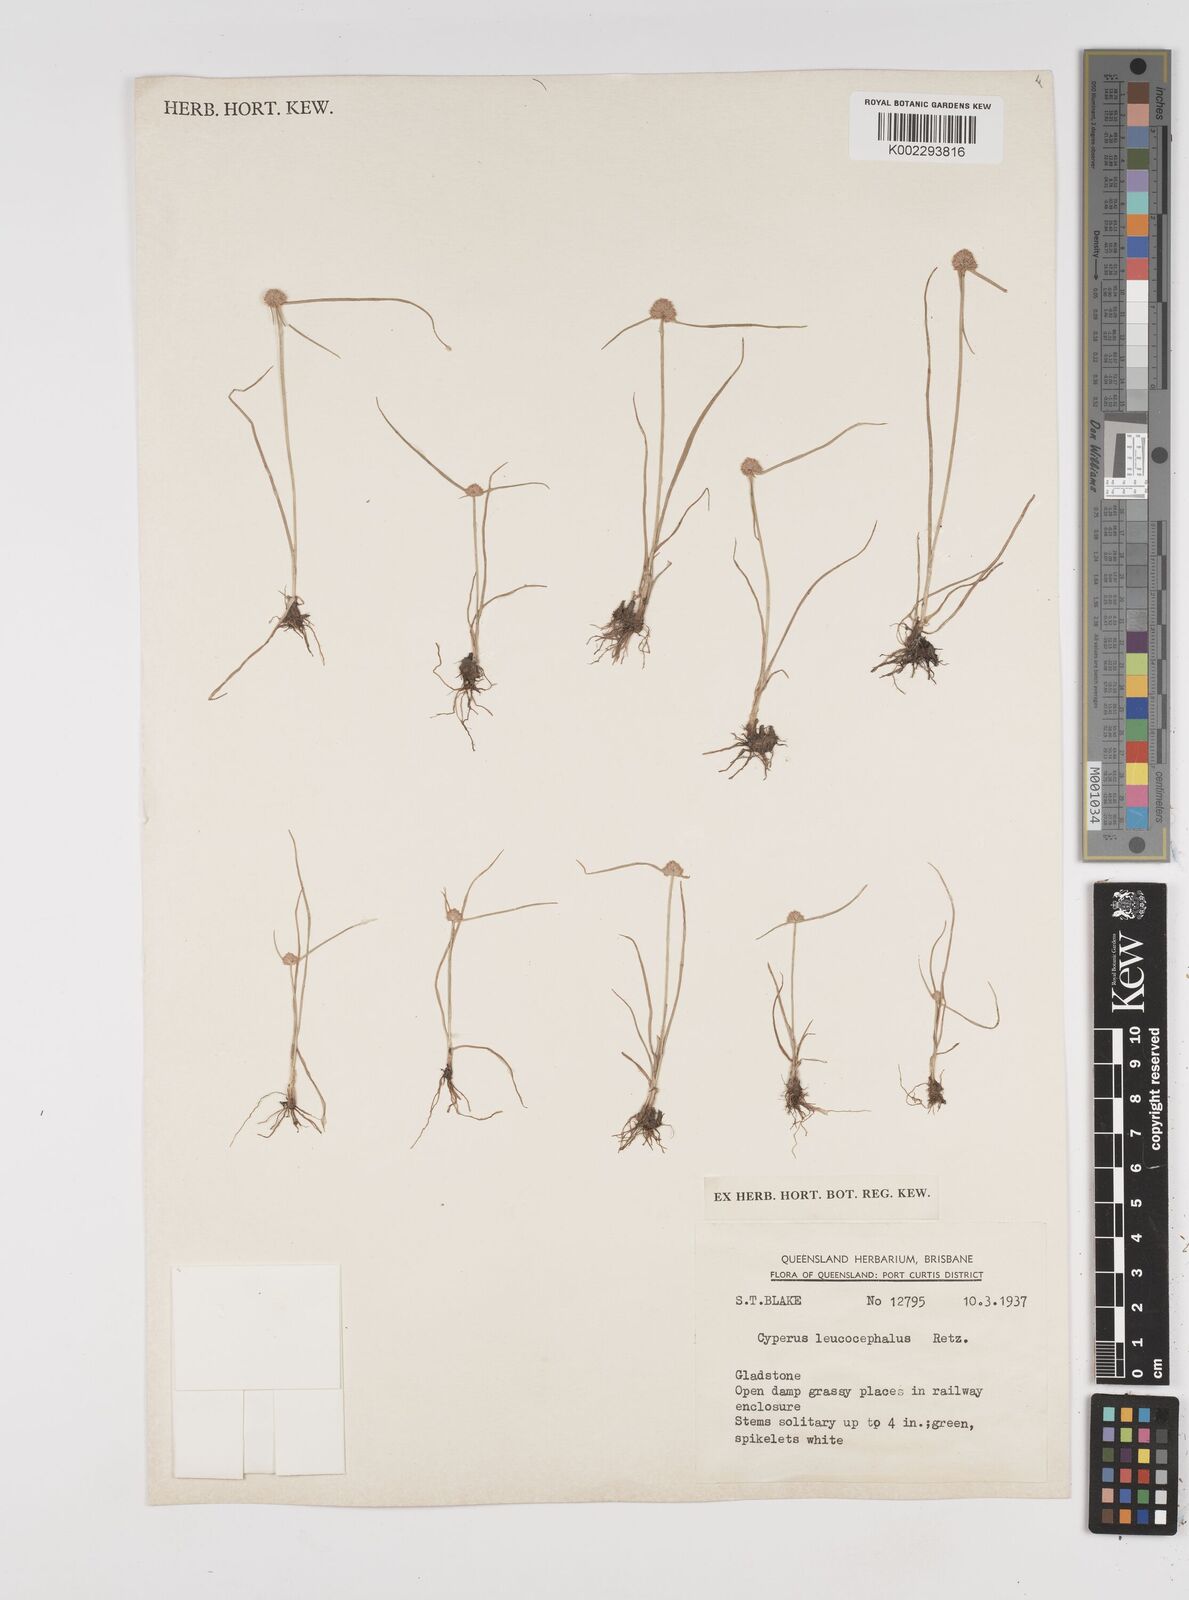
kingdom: Plantae
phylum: Tracheophyta
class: Liliopsida
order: Poales
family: Cyperaceae
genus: Cyperus
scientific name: Cyperus leucocephalus
